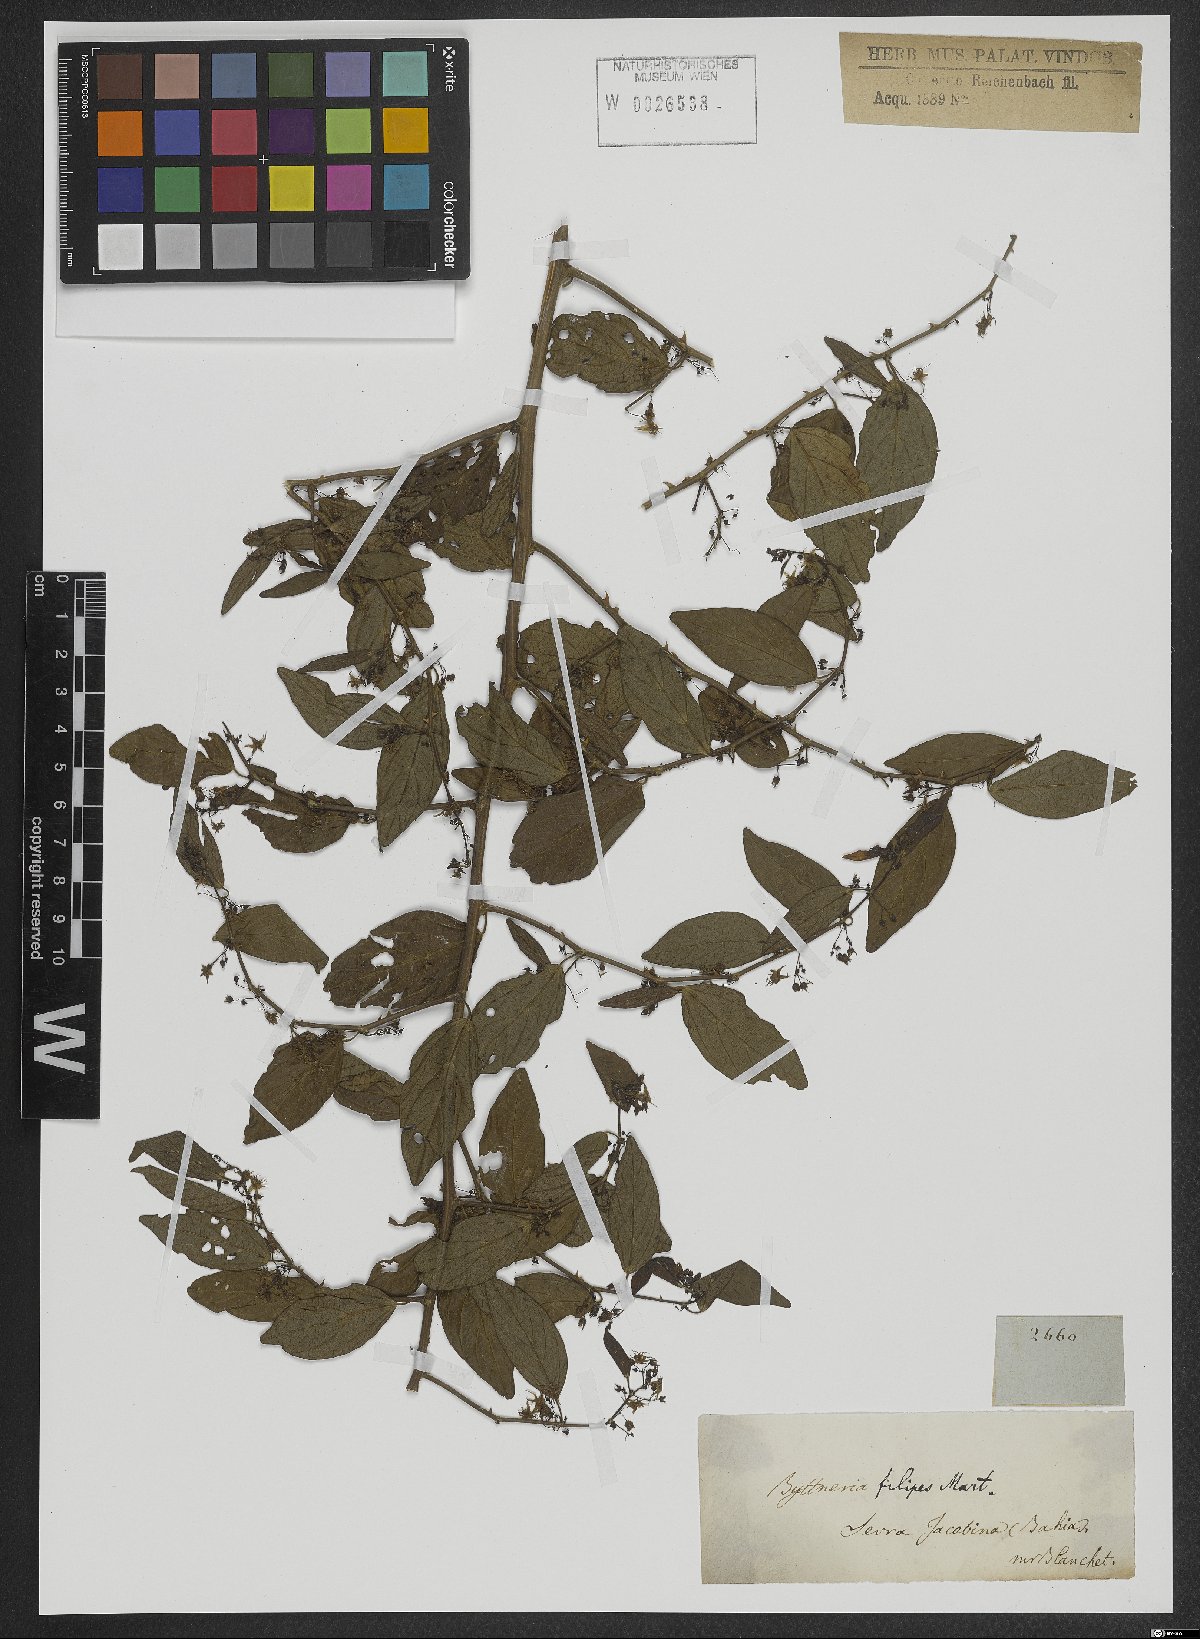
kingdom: Plantae
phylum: Tracheophyta
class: Magnoliopsida
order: Malvales
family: Malvaceae
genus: Byttneria
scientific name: Byttneria filipes
